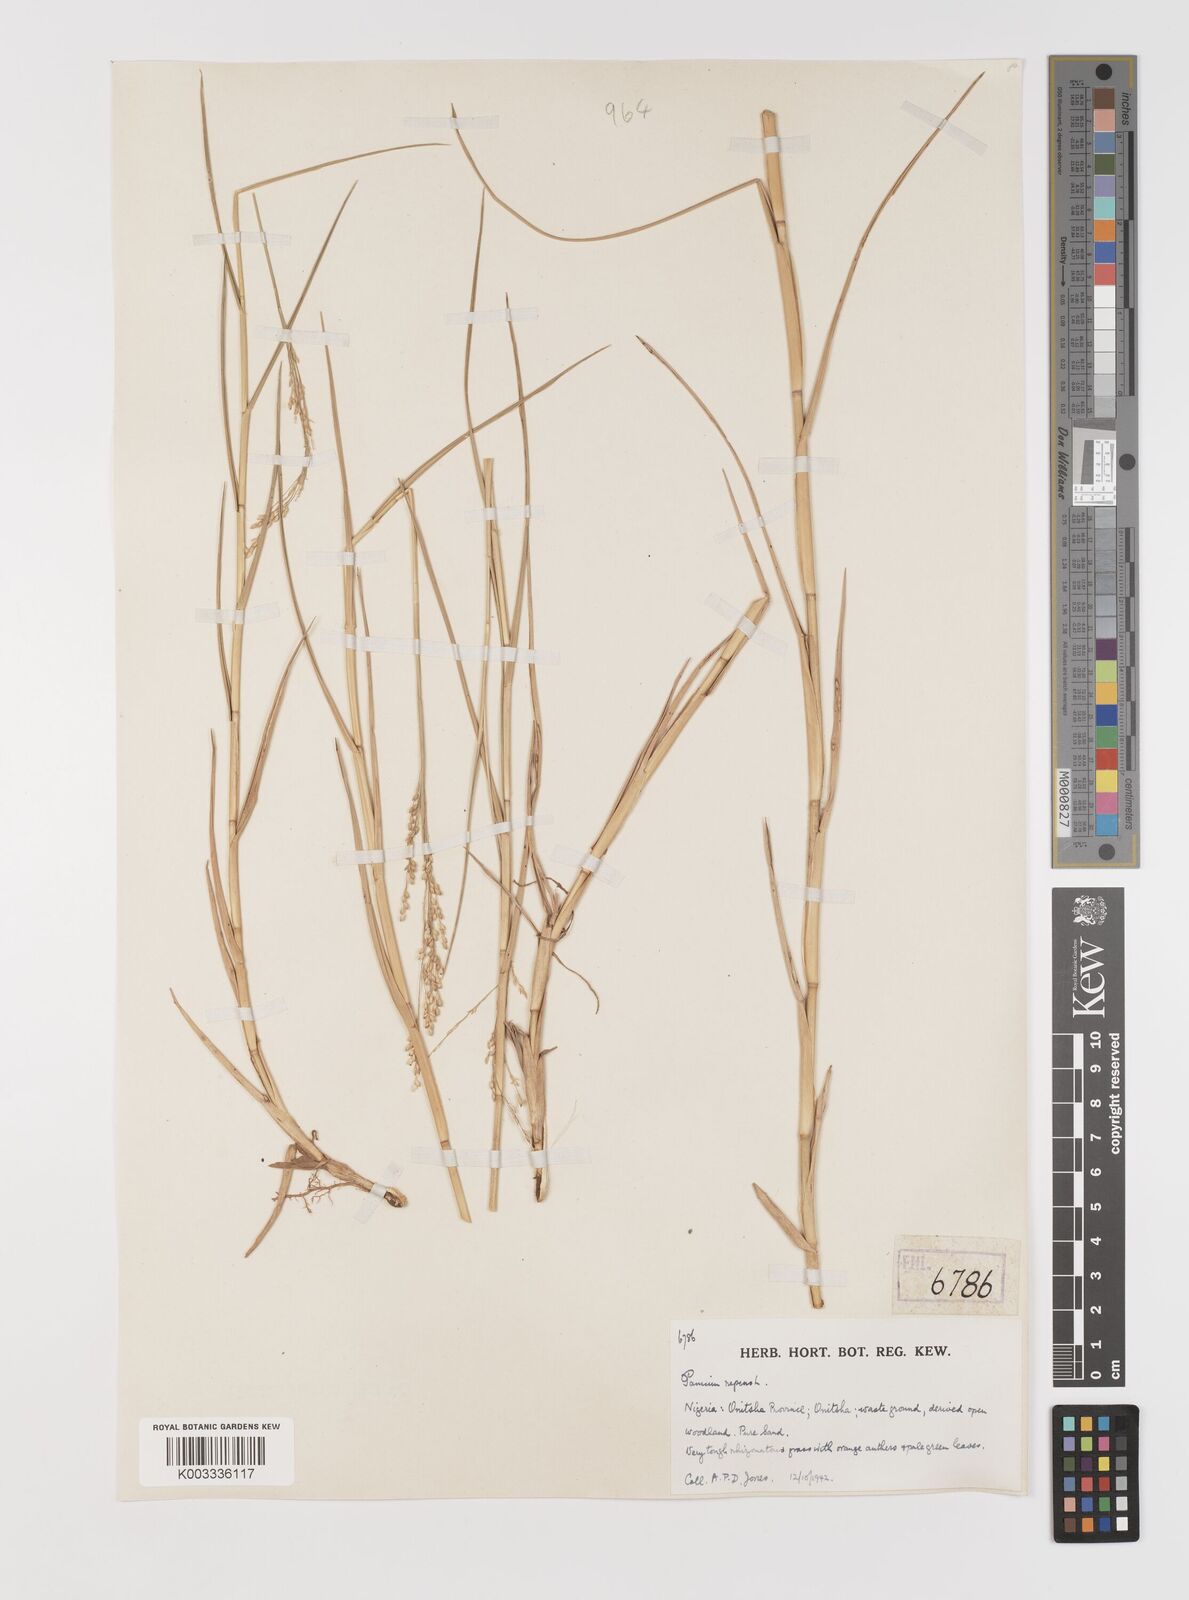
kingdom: Plantae
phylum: Tracheophyta
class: Liliopsida
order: Poales
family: Poaceae
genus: Panicum
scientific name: Panicum repens
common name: Torpedo grass
